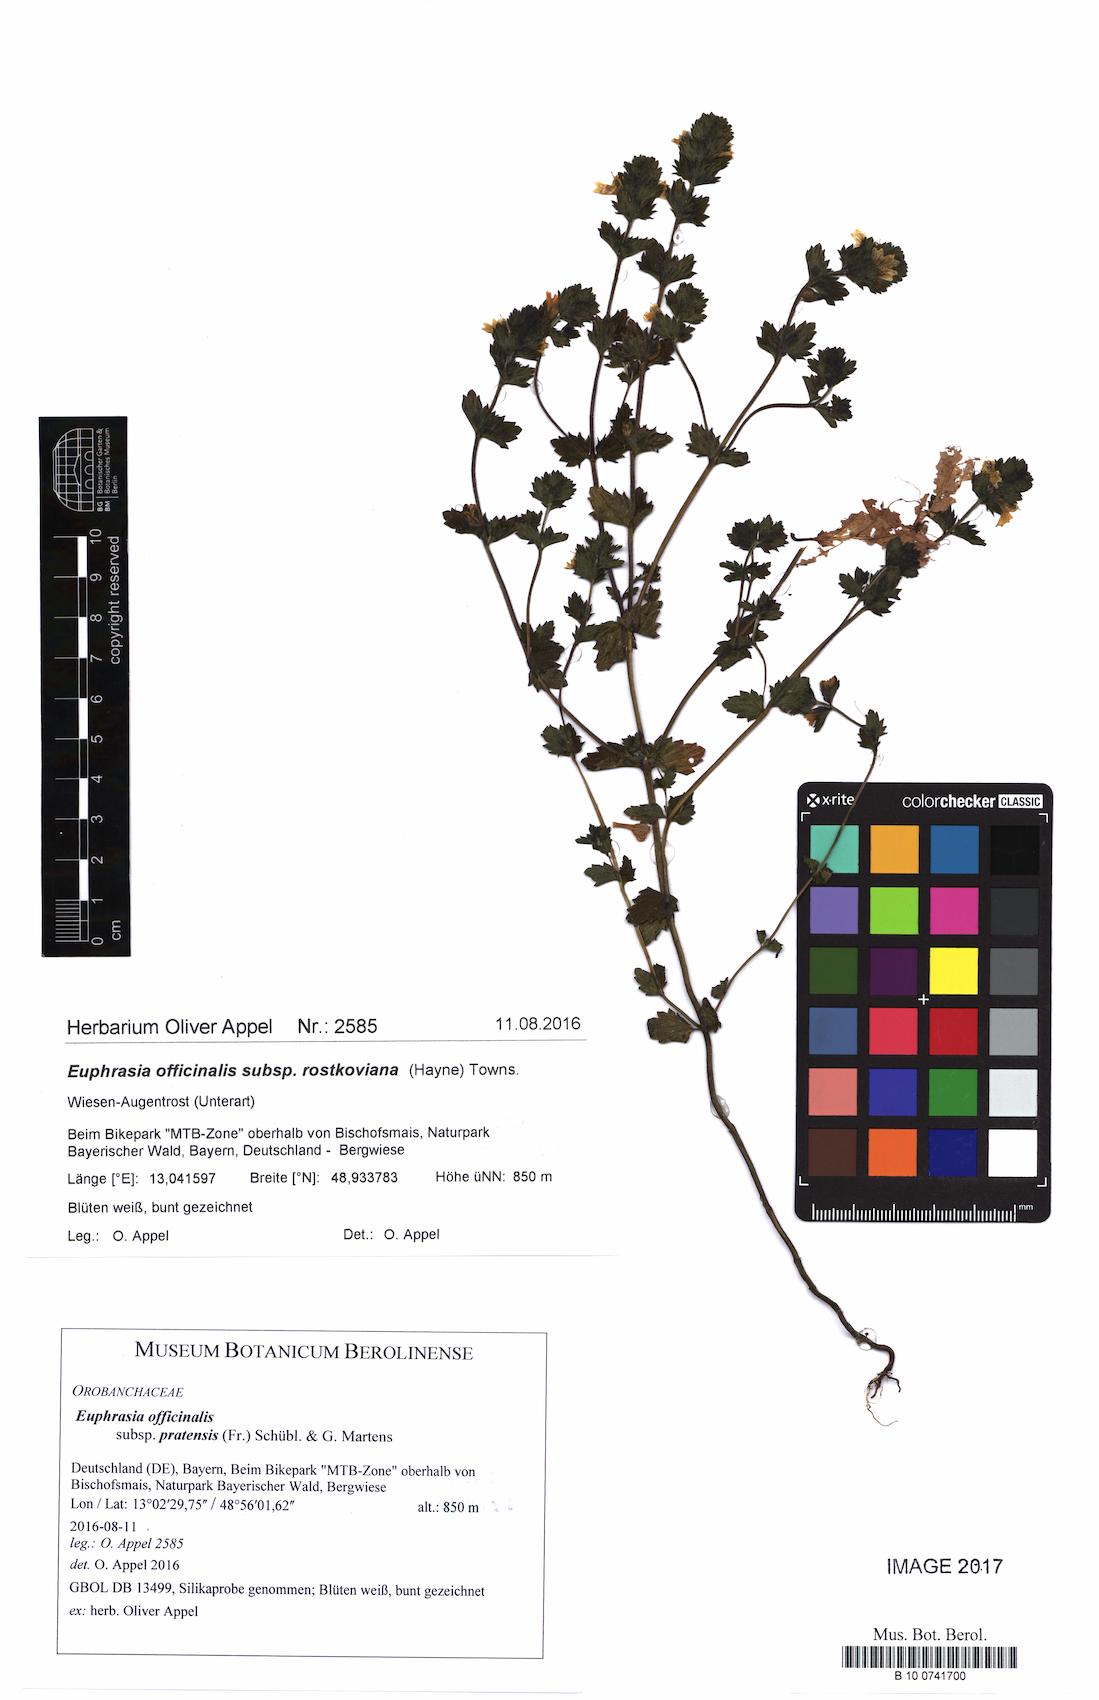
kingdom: Plantae
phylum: Tracheophyta
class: Magnoliopsida
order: Lamiales
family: Orobanchaceae
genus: Euphrasia
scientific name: Euphrasia officinalis
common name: Eyebright
